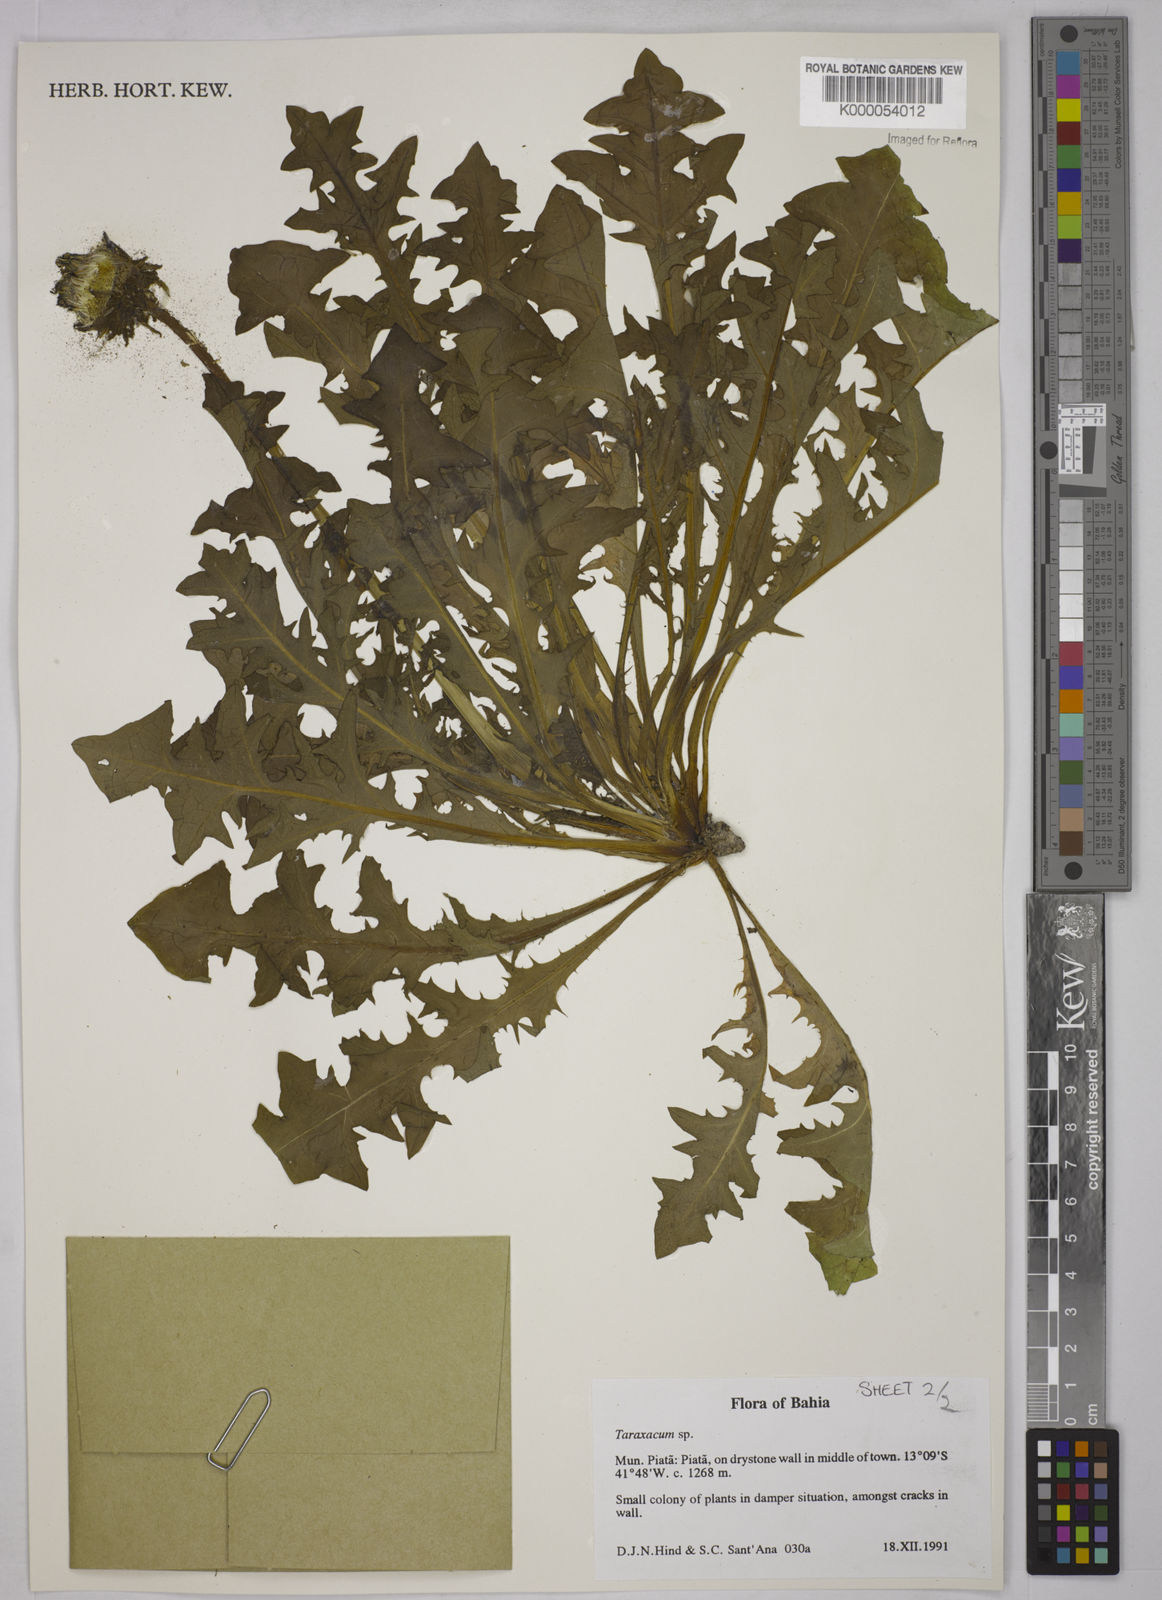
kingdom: Plantae
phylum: Tracheophyta
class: Magnoliopsida
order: Asterales
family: Asteraceae
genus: Taraxacum
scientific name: Taraxacum
